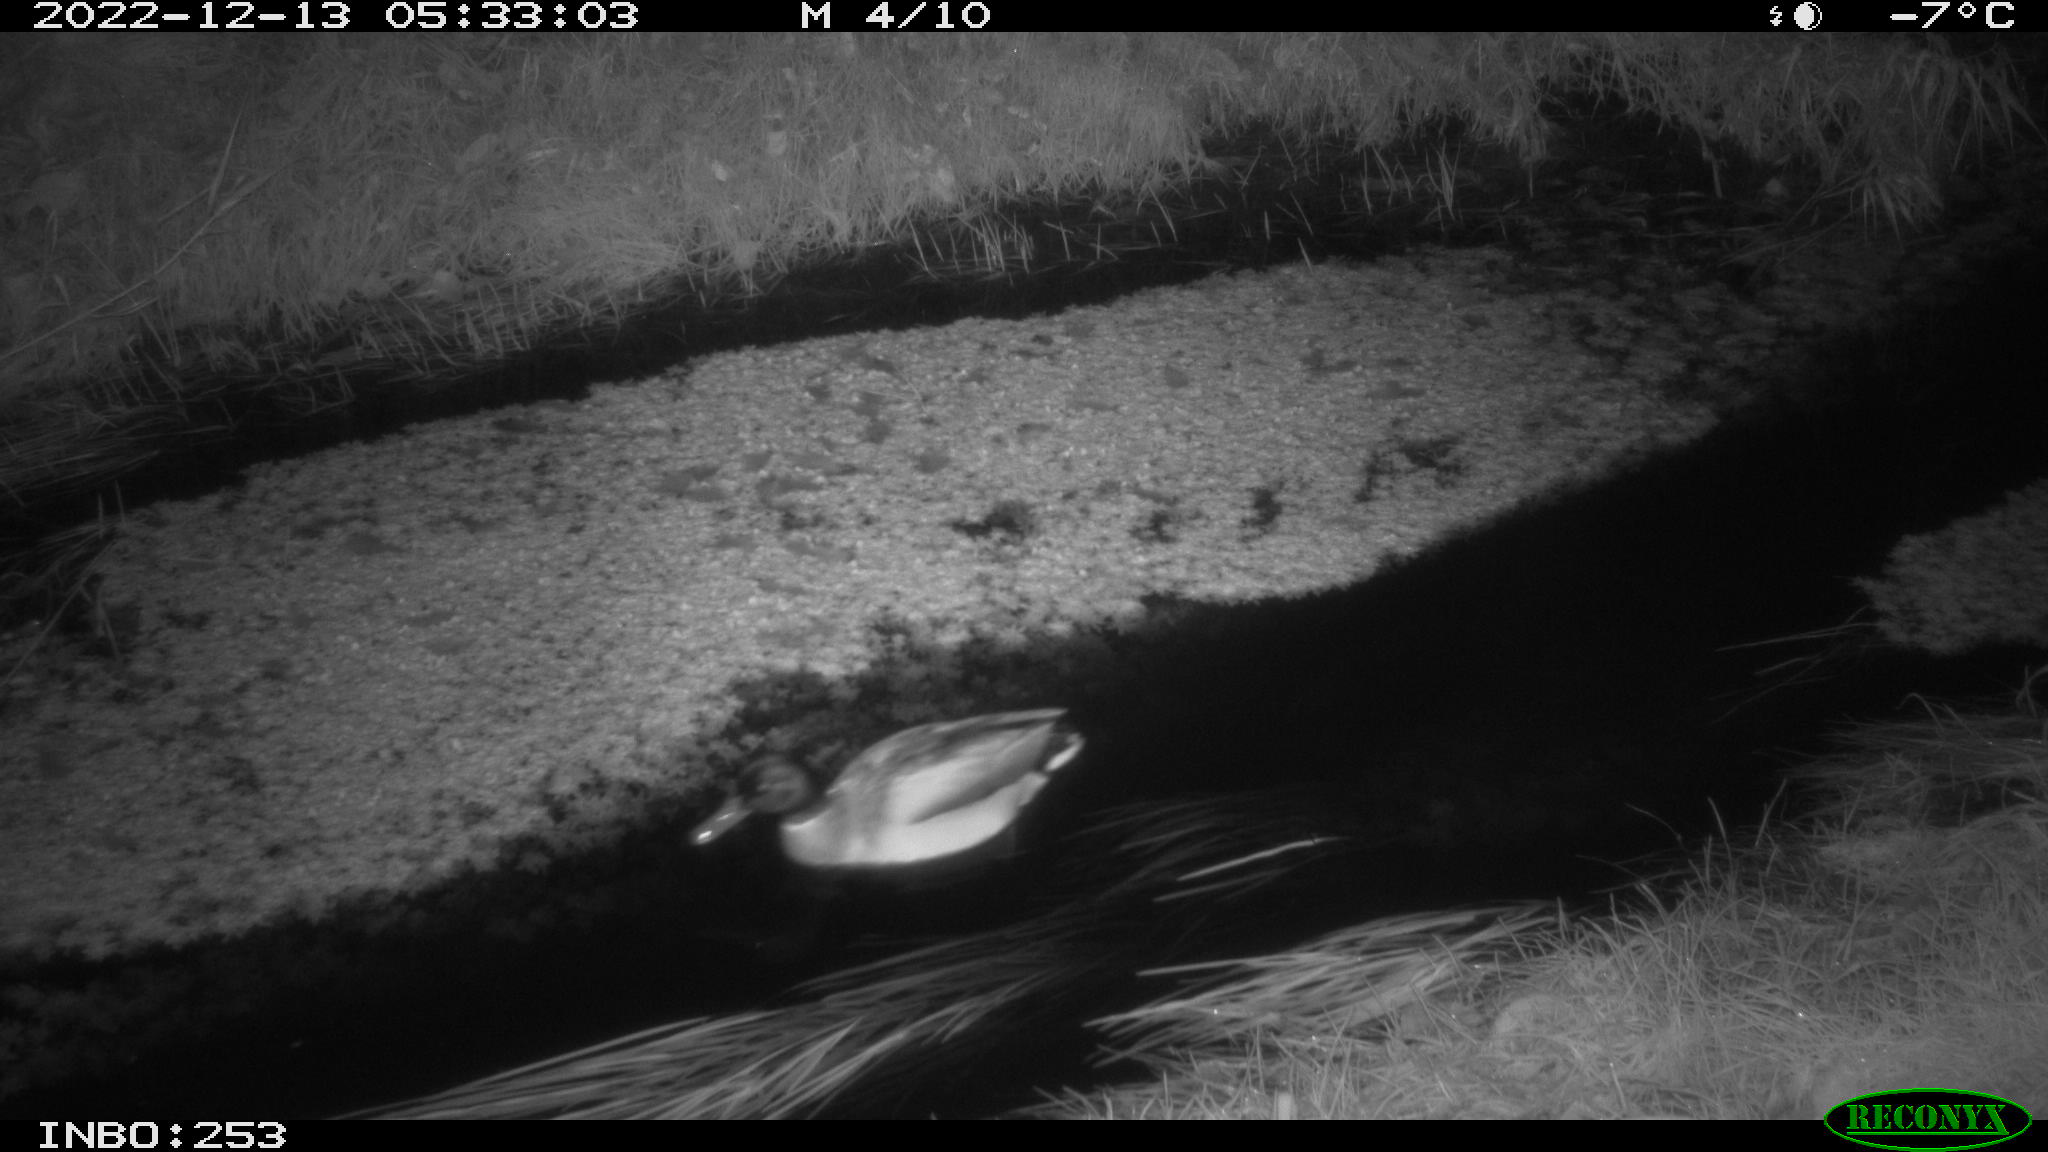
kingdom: Animalia
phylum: Chordata
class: Aves
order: Anseriformes
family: Anatidae
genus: Anas
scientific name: Anas
